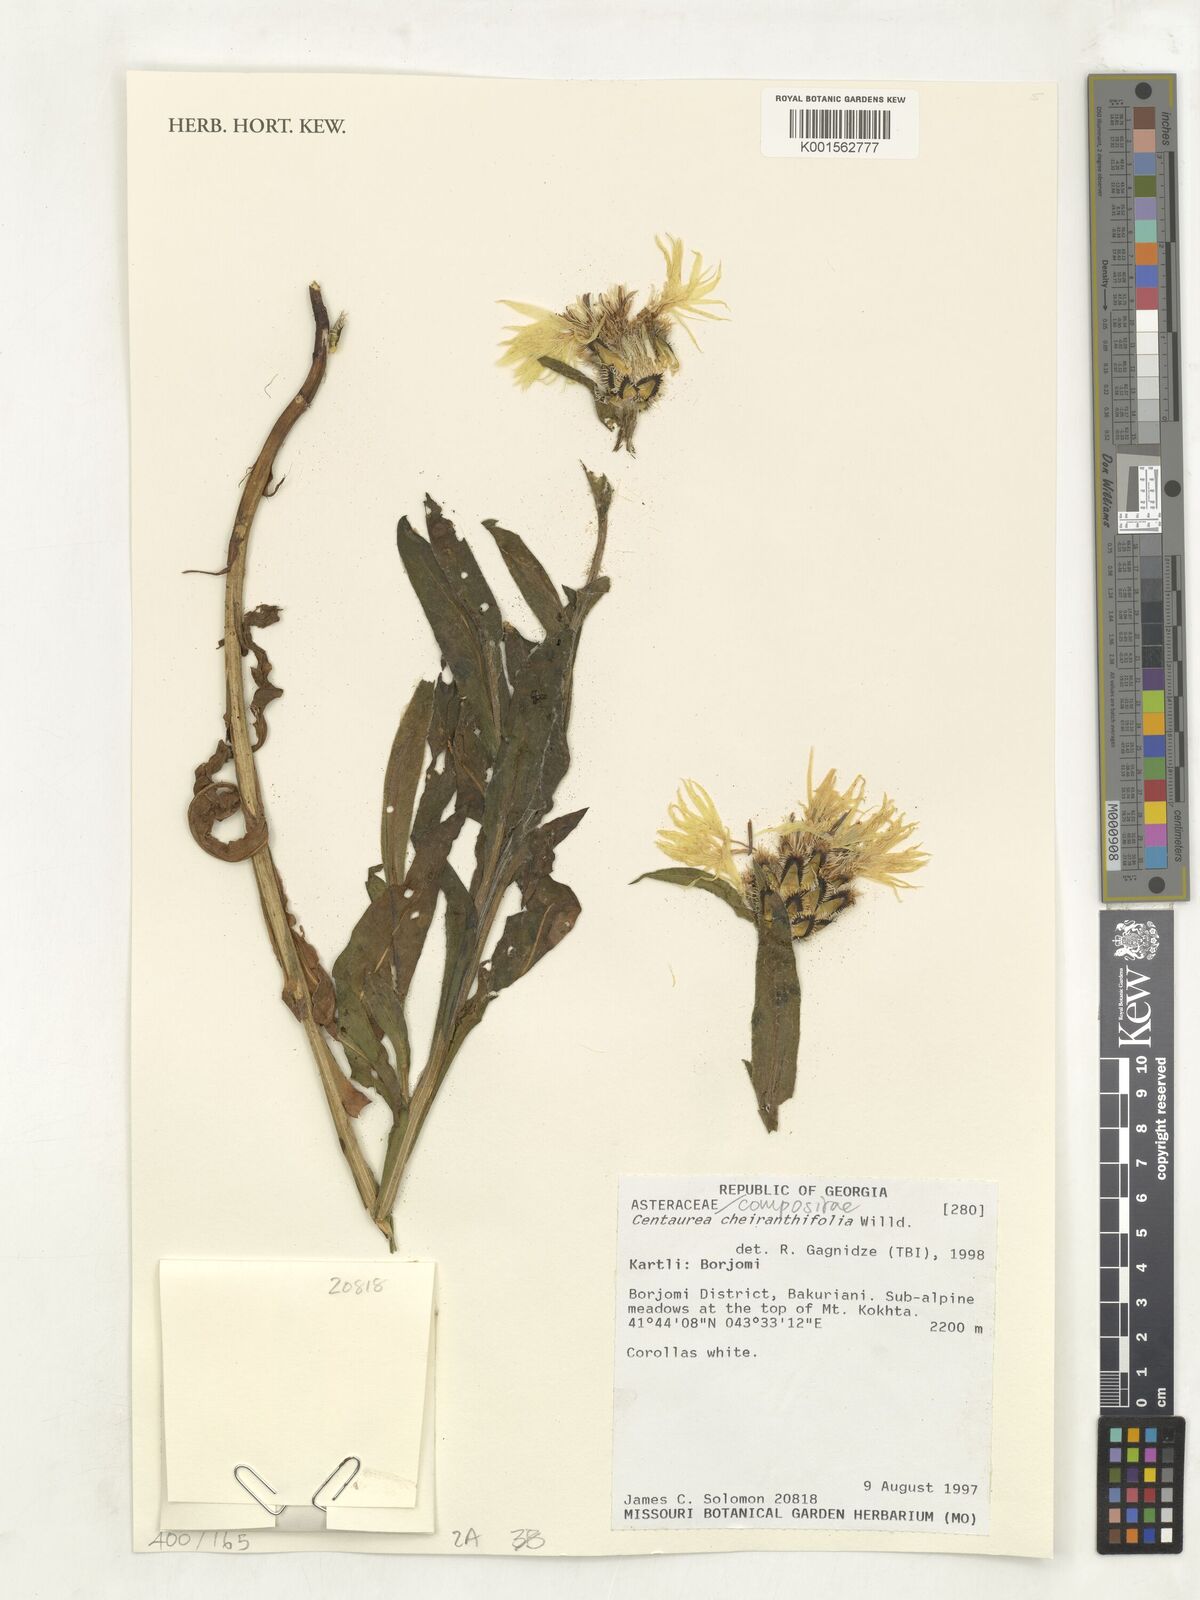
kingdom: Plantae
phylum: Tracheophyta
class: Magnoliopsida
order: Asterales
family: Asteraceae
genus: Centaurea
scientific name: Centaurea cheiranthifolia
